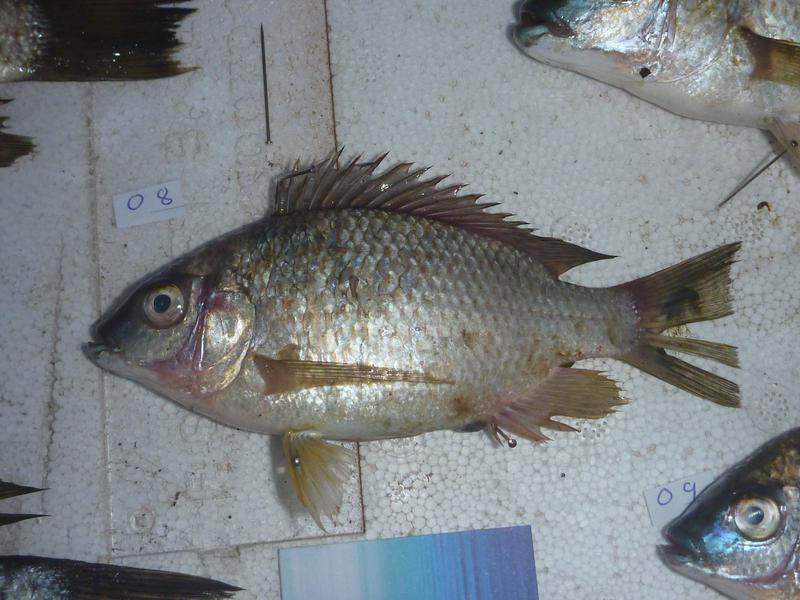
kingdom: Animalia
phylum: Chordata
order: Perciformes
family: Cichlidae
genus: Oreochromis
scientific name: Oreochromis karomo
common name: Karomo
